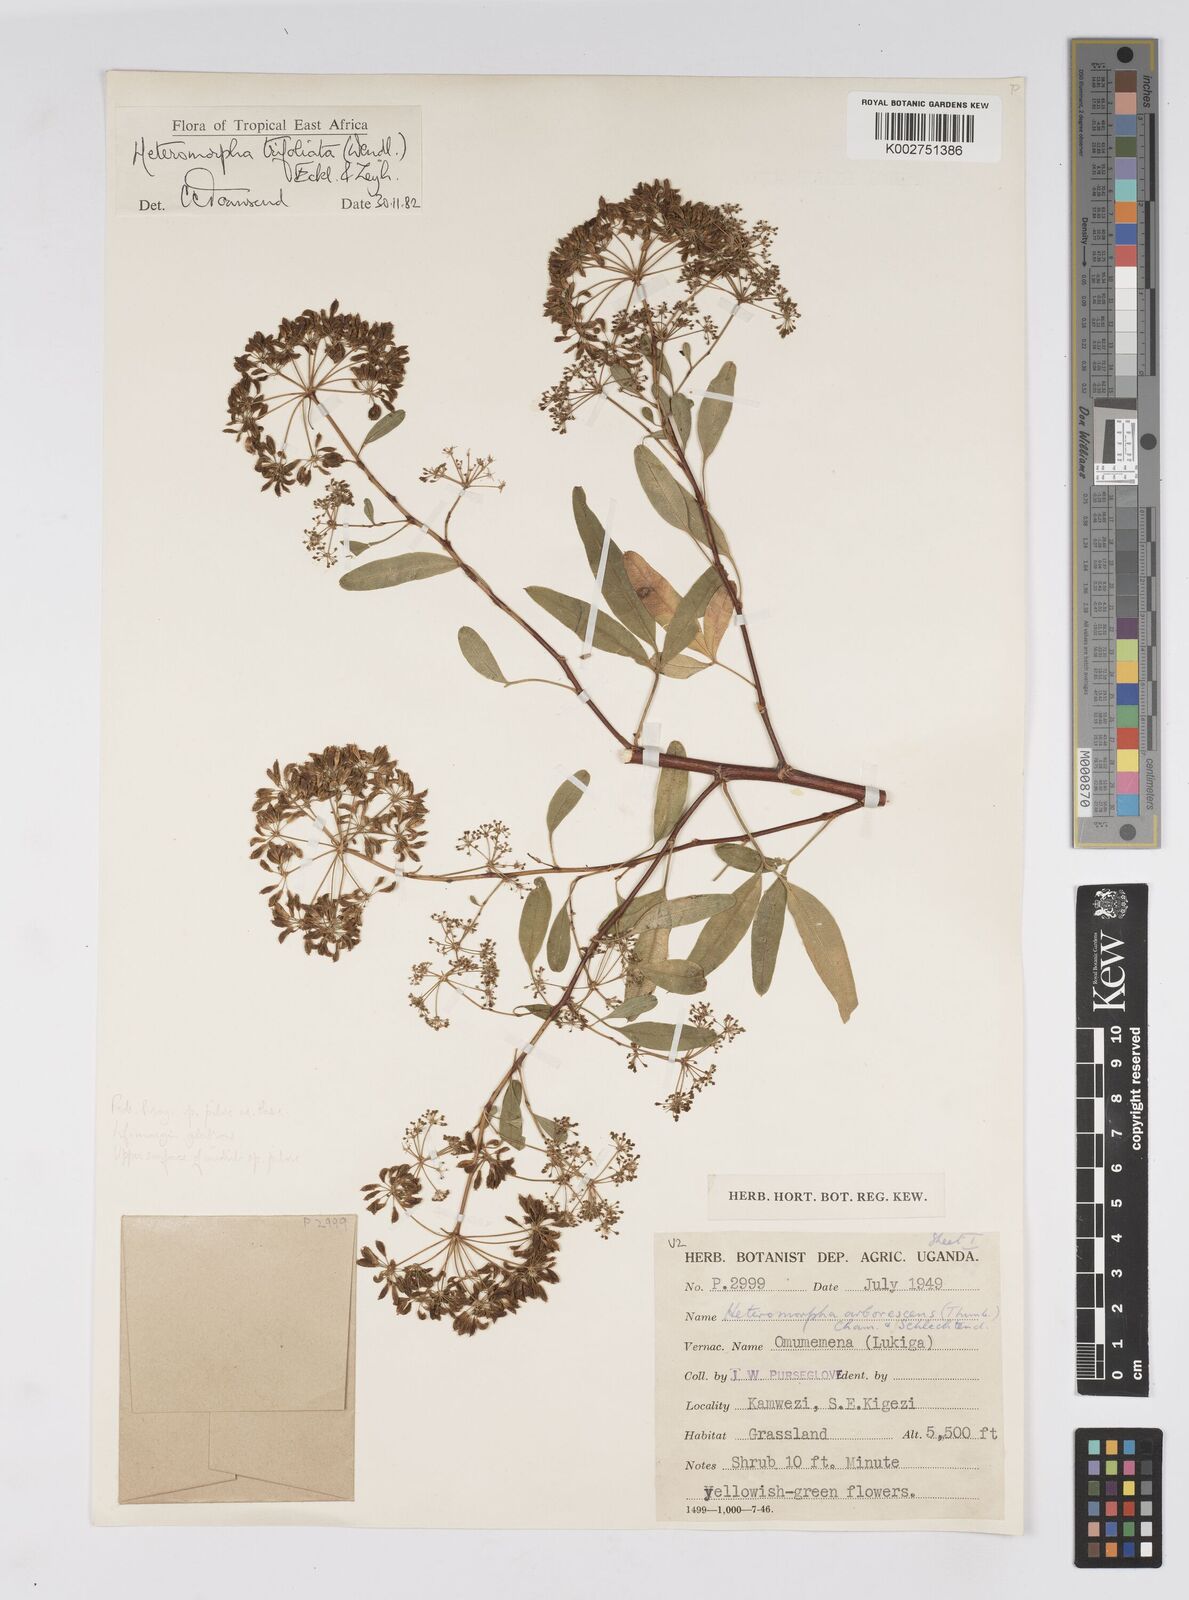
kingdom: Plantae
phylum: Tracheophyta
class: Magnoliopsida
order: Apiales
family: Apiaceae
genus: Heteromorpha
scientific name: Heteromorpha arborescens
